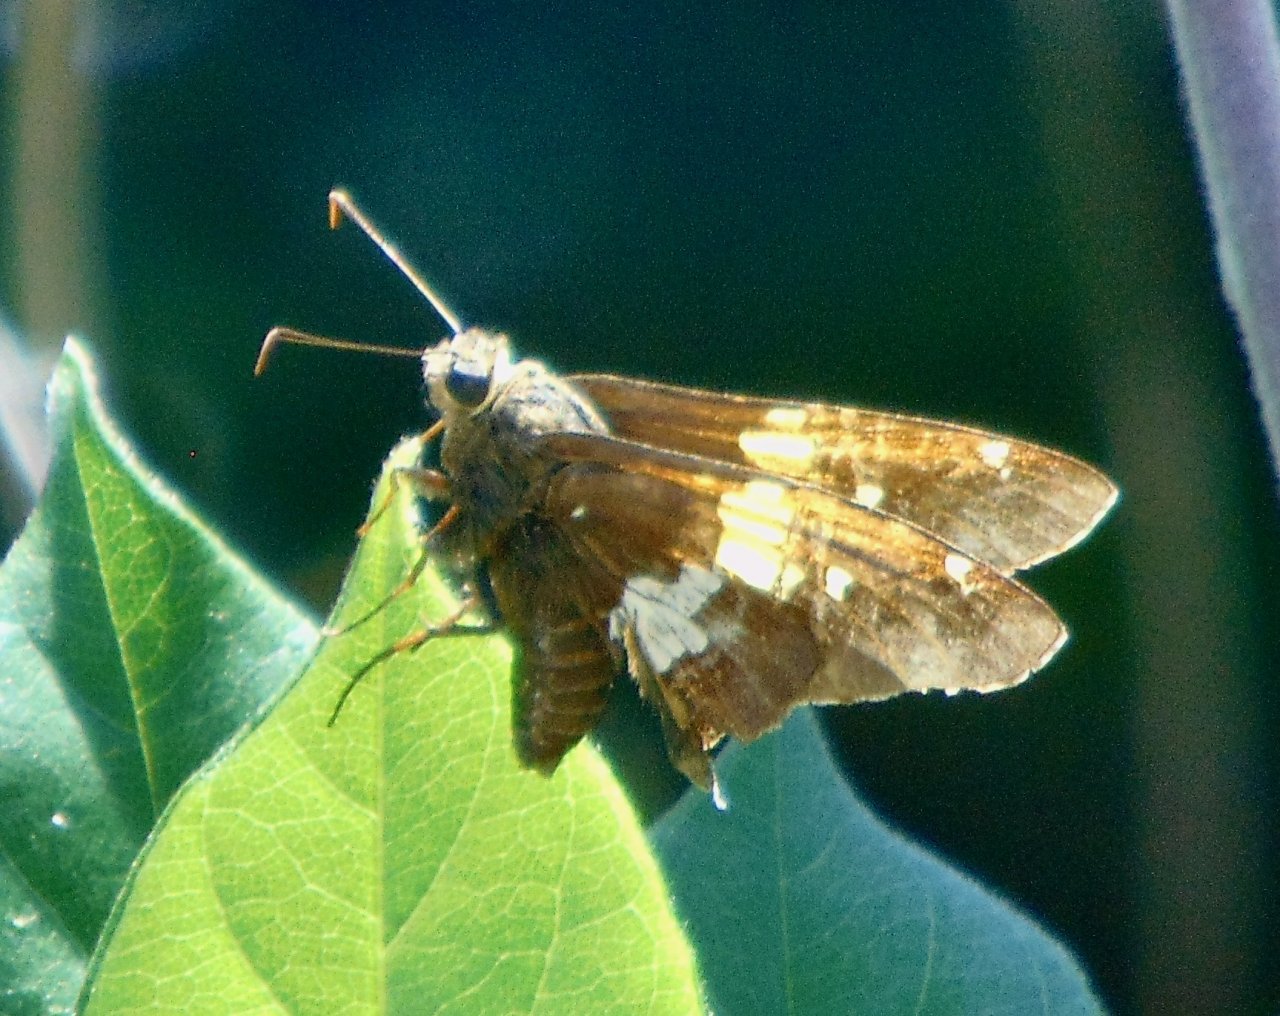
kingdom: Animalia
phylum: Arthropoda
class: Insecta
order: Lepidoptera
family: Hesperiidae
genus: Epargyreus
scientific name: Epargyreus clarus
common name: Silver-spotted Skipper
